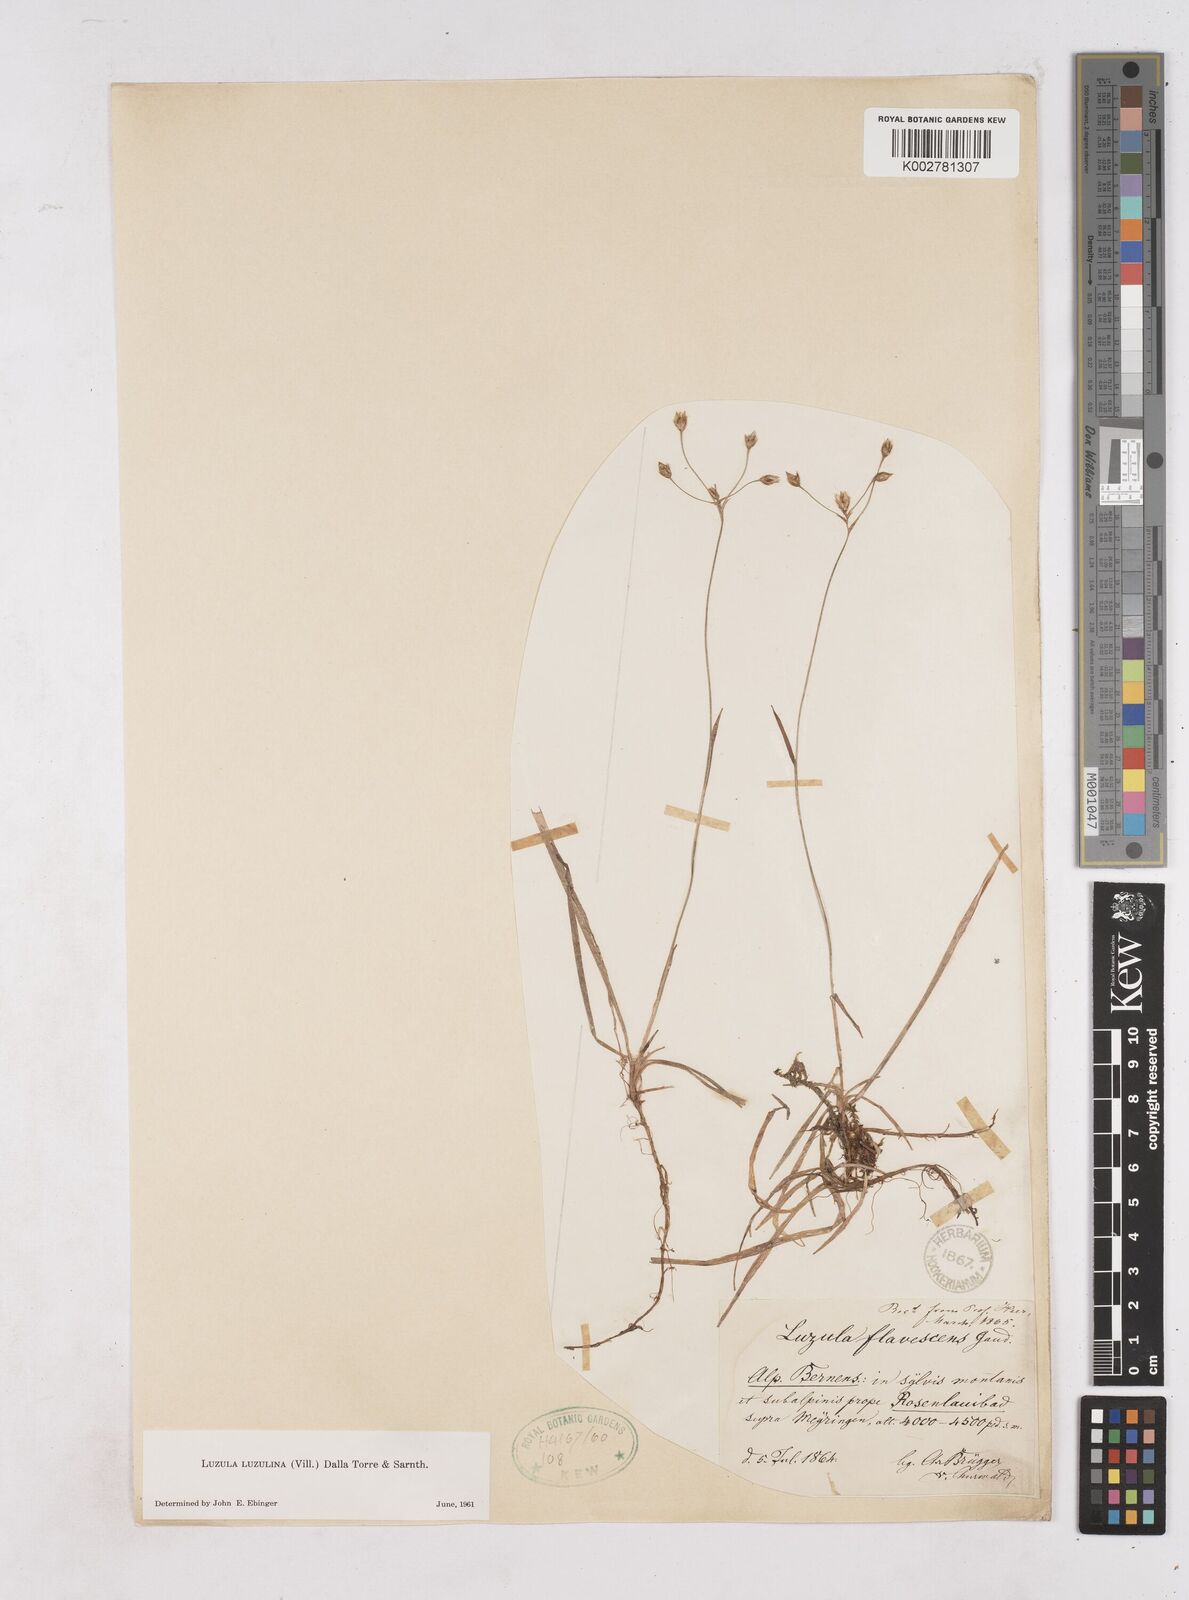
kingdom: Plantae
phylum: Tracheophyta
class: Liliopsida
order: Poales
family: Juncaceae
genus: Luzula
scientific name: Luzula luzulina
